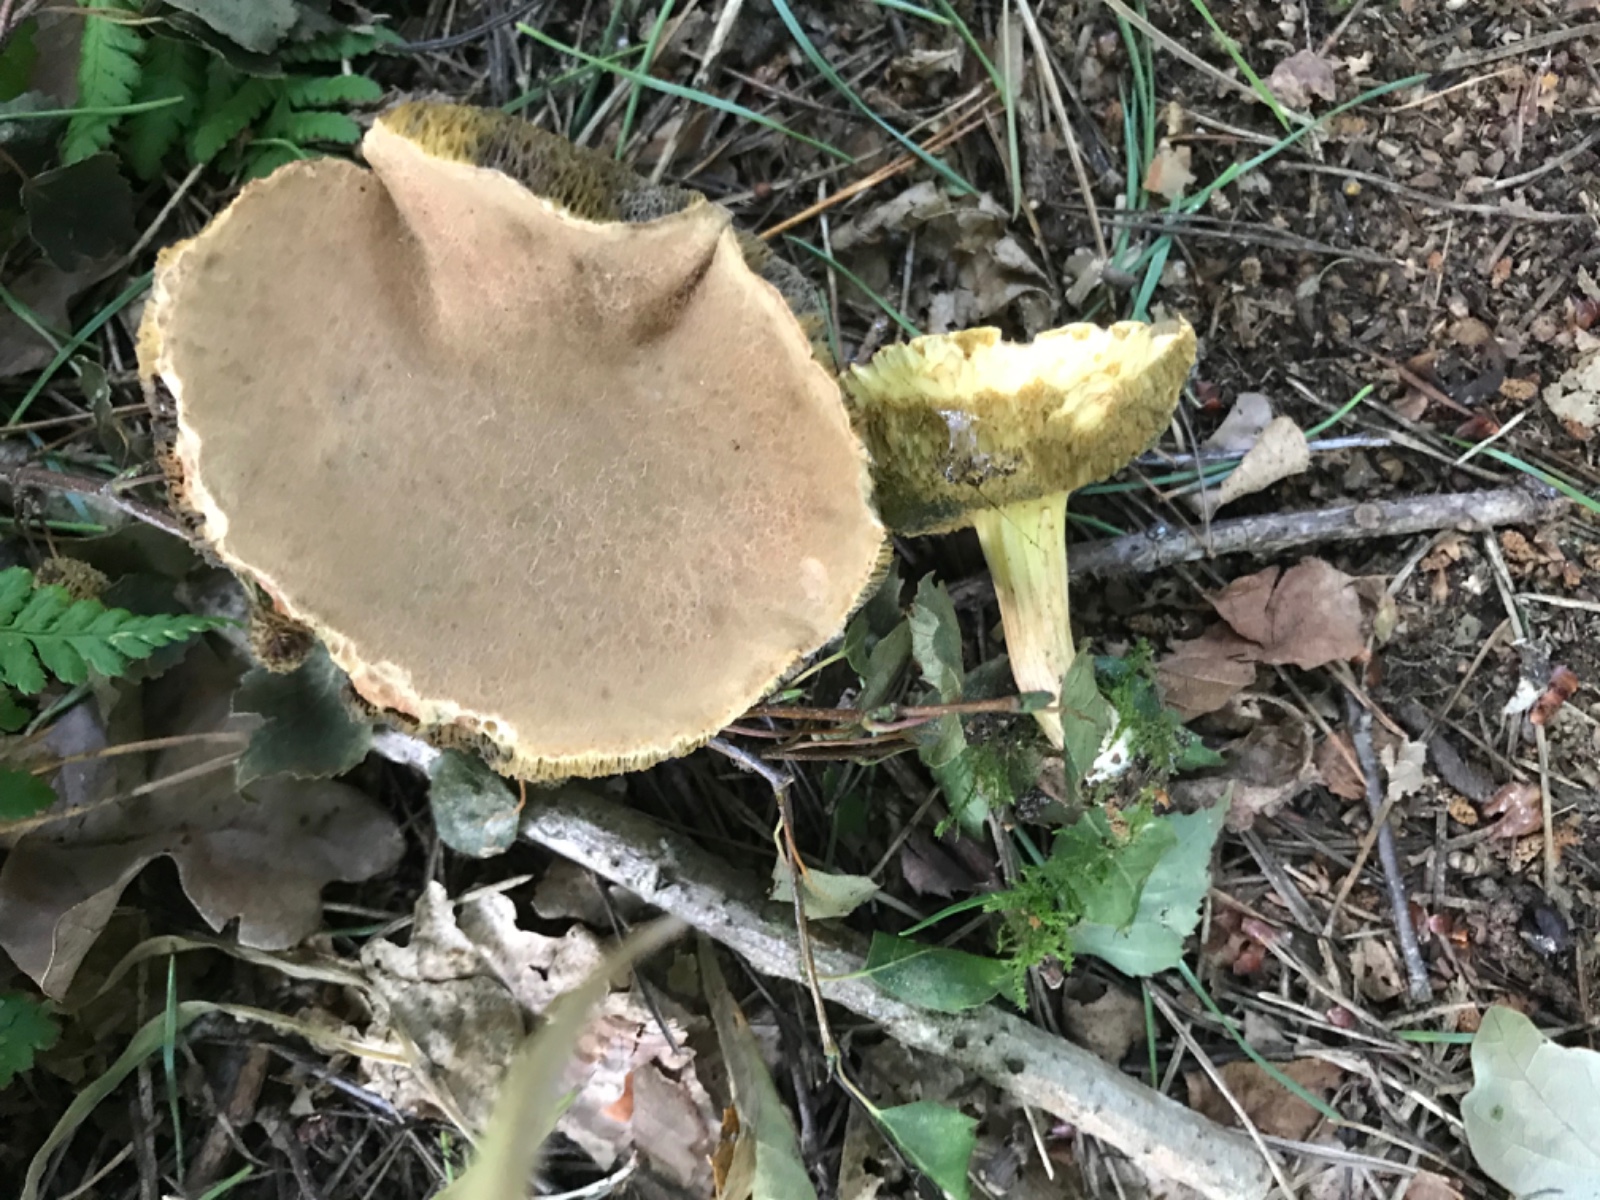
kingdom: Fungi
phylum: Basidiomycota
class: Agaricomycetes
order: Boletales
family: Boletaceae
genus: Xerocomellus
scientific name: Xerocomellus porosporus
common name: hvidsprukken rørhat
